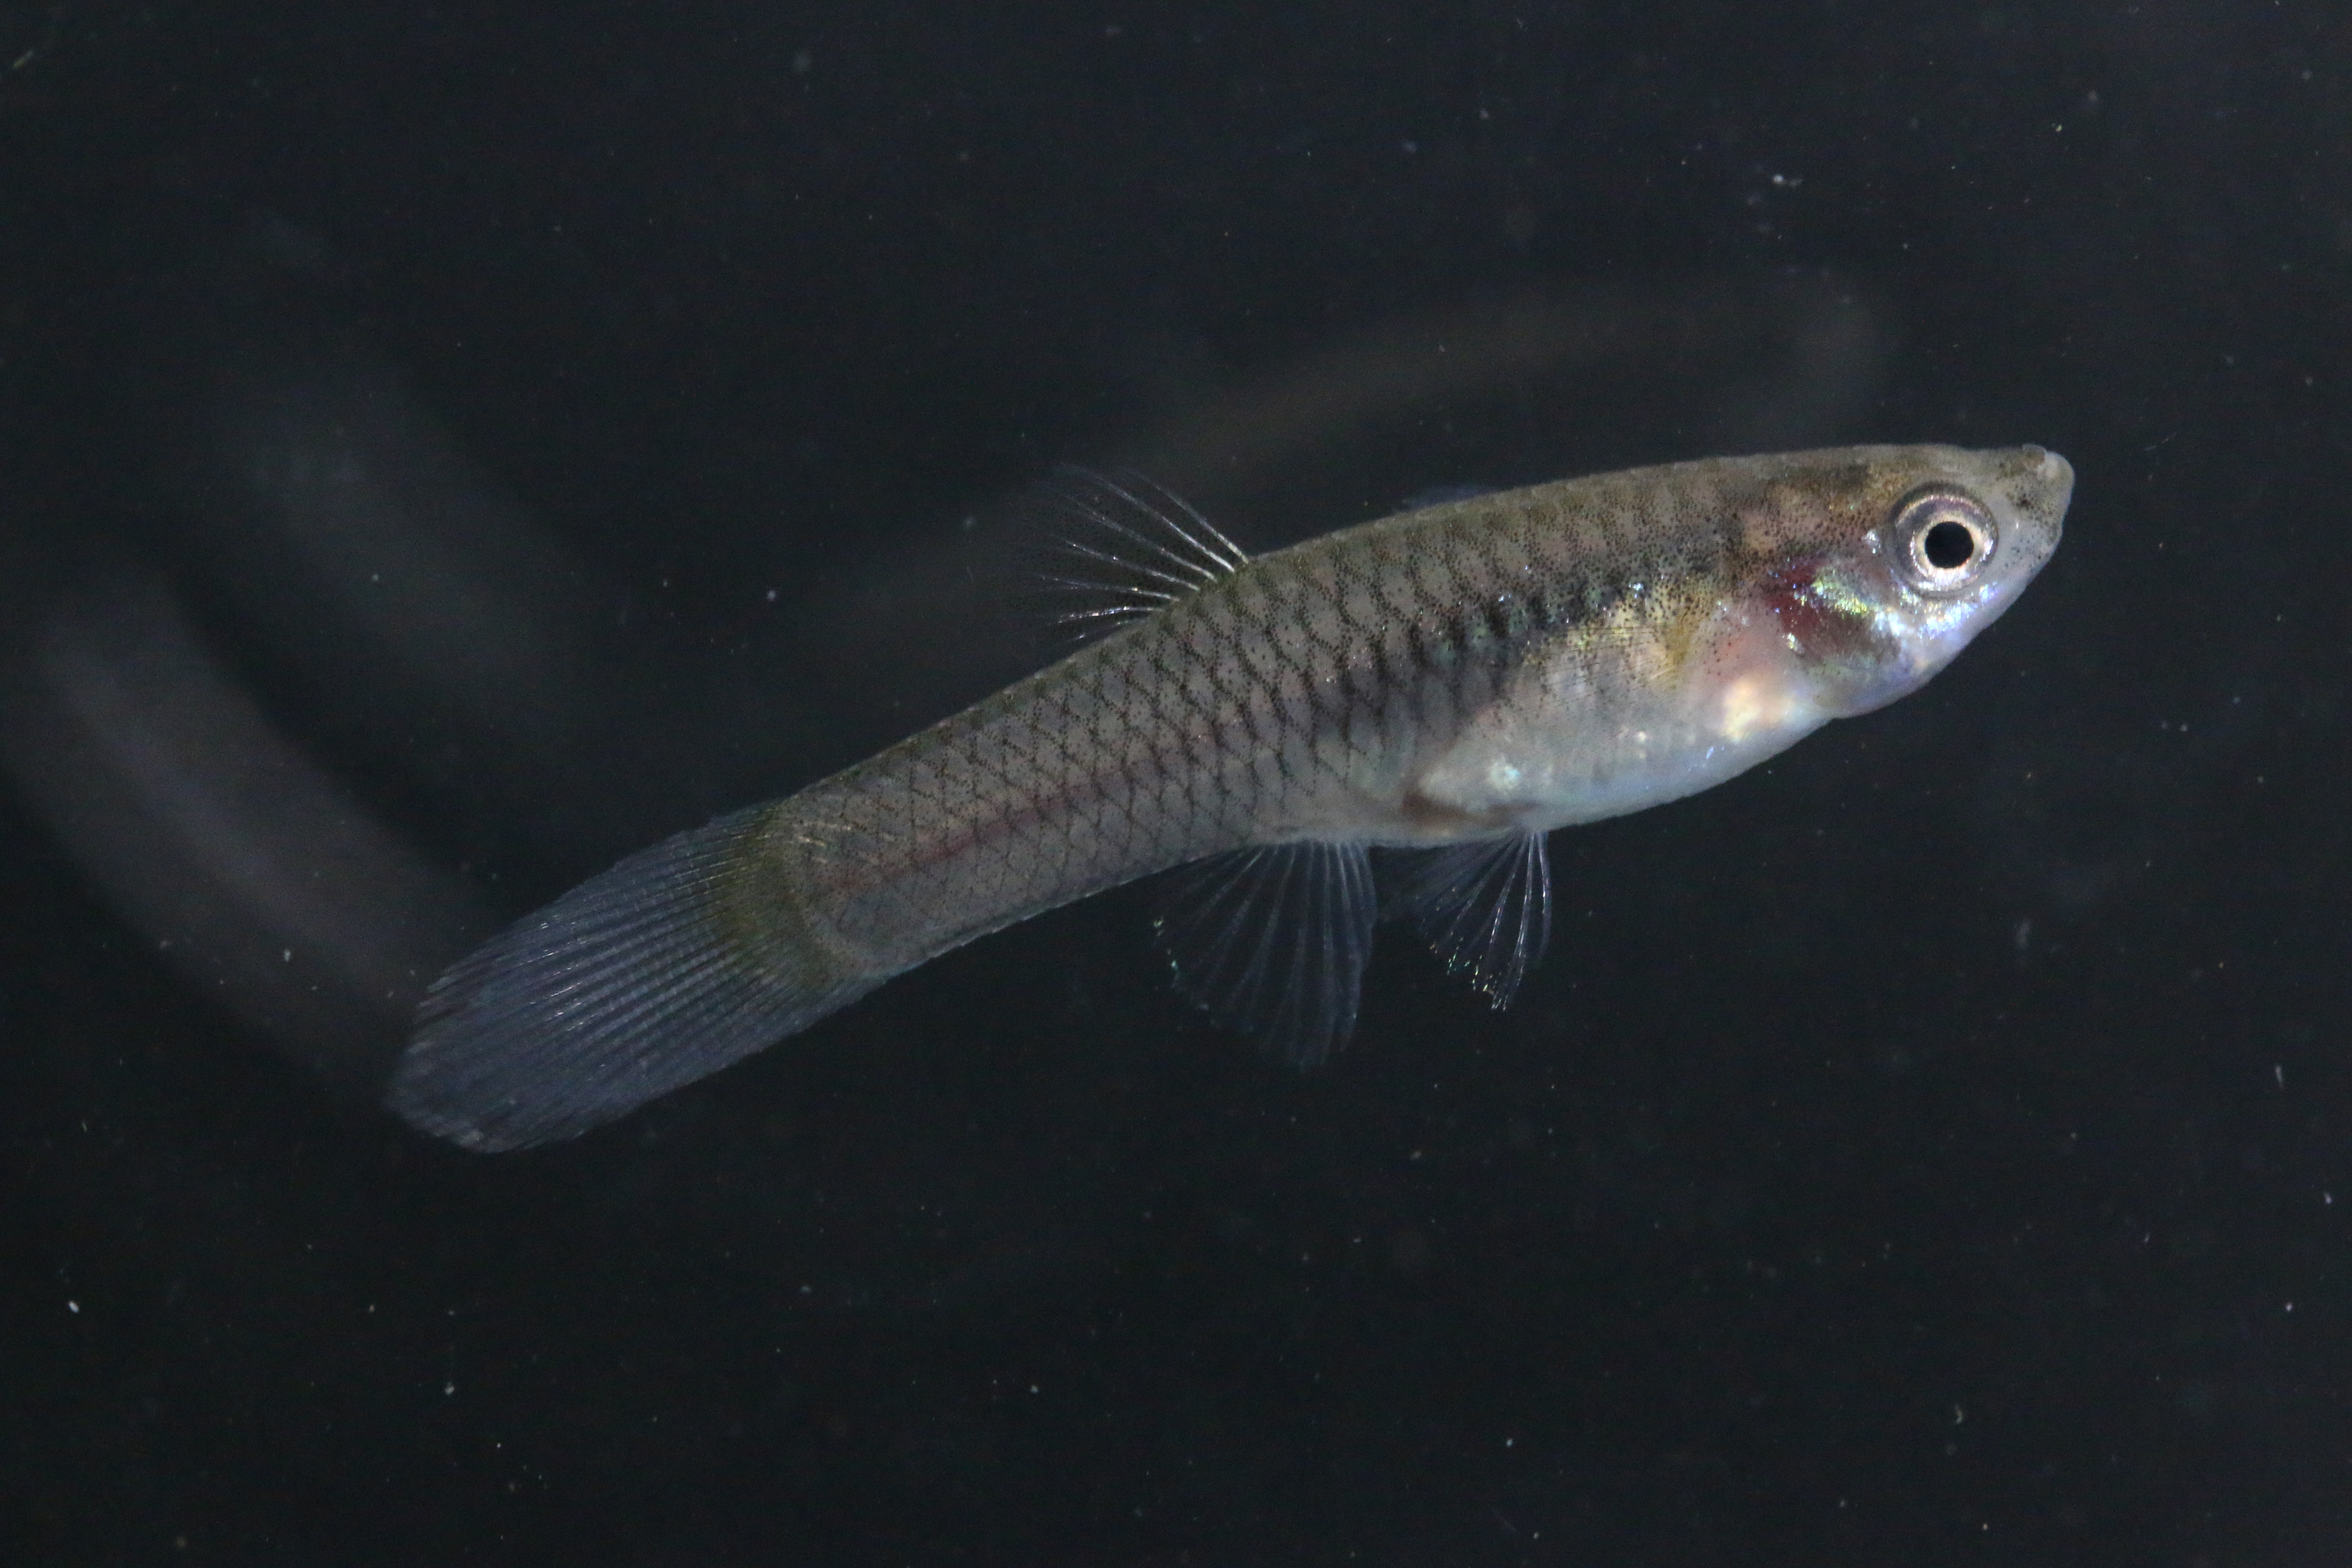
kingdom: Animalia
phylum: Chordata
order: Cyprinodontiformes
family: Poeciliidae
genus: Poecilia
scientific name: Poecilia reticulata
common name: Guppy
